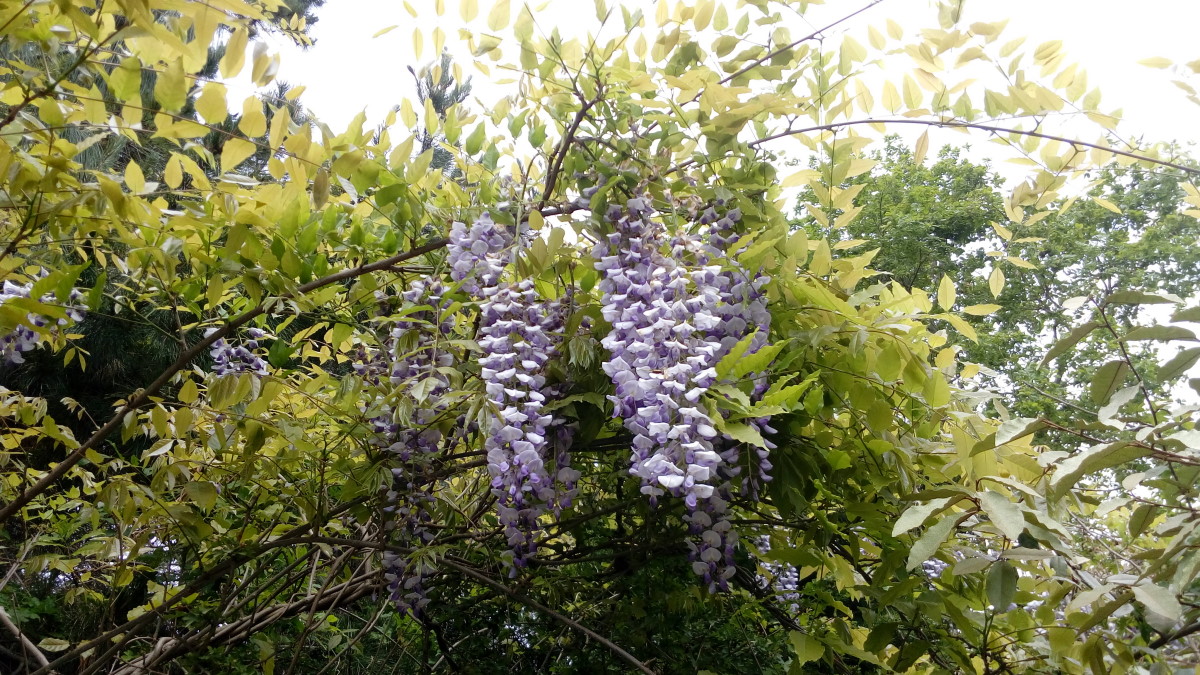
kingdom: Plantae
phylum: Tracheophyta
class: Magnoliopsida
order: Fabales
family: Fabaceae
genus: Wisteria
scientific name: Wisteria sinensis
